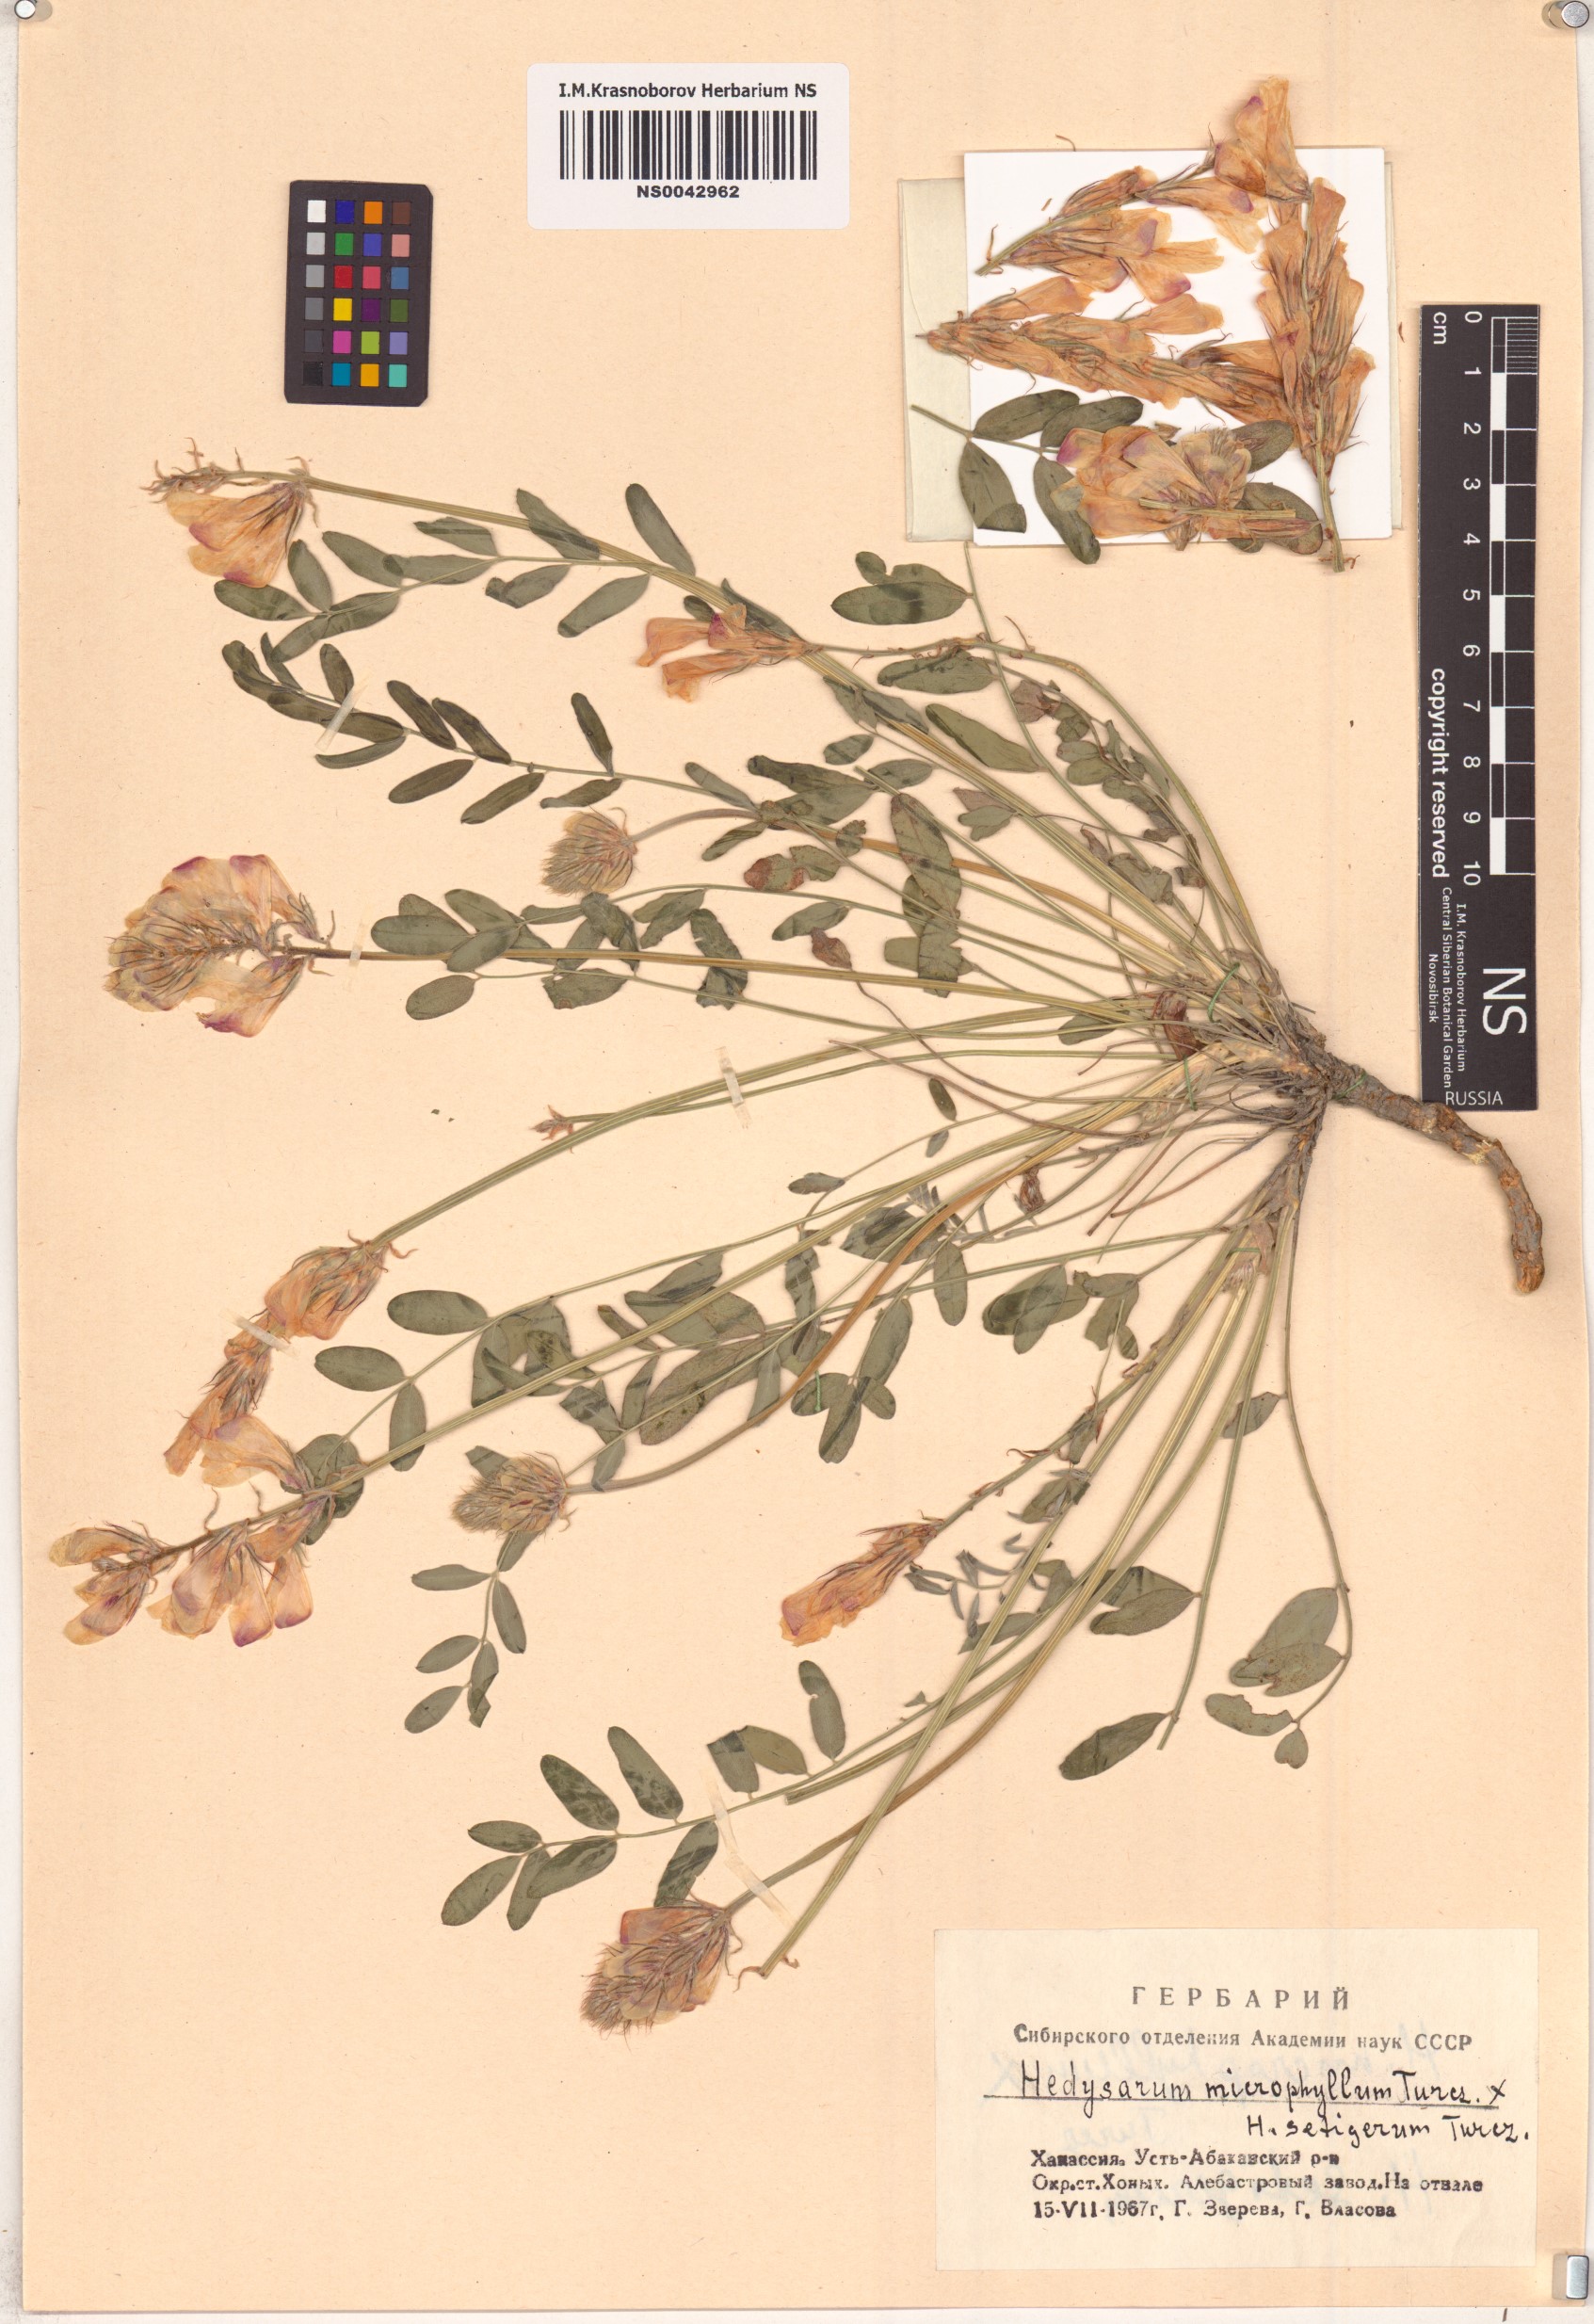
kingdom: Plantae
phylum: Tracheophyta
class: Magnoliopsida
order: Fabales
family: Fabaceae
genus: Hedysarum
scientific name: Hedysarum
